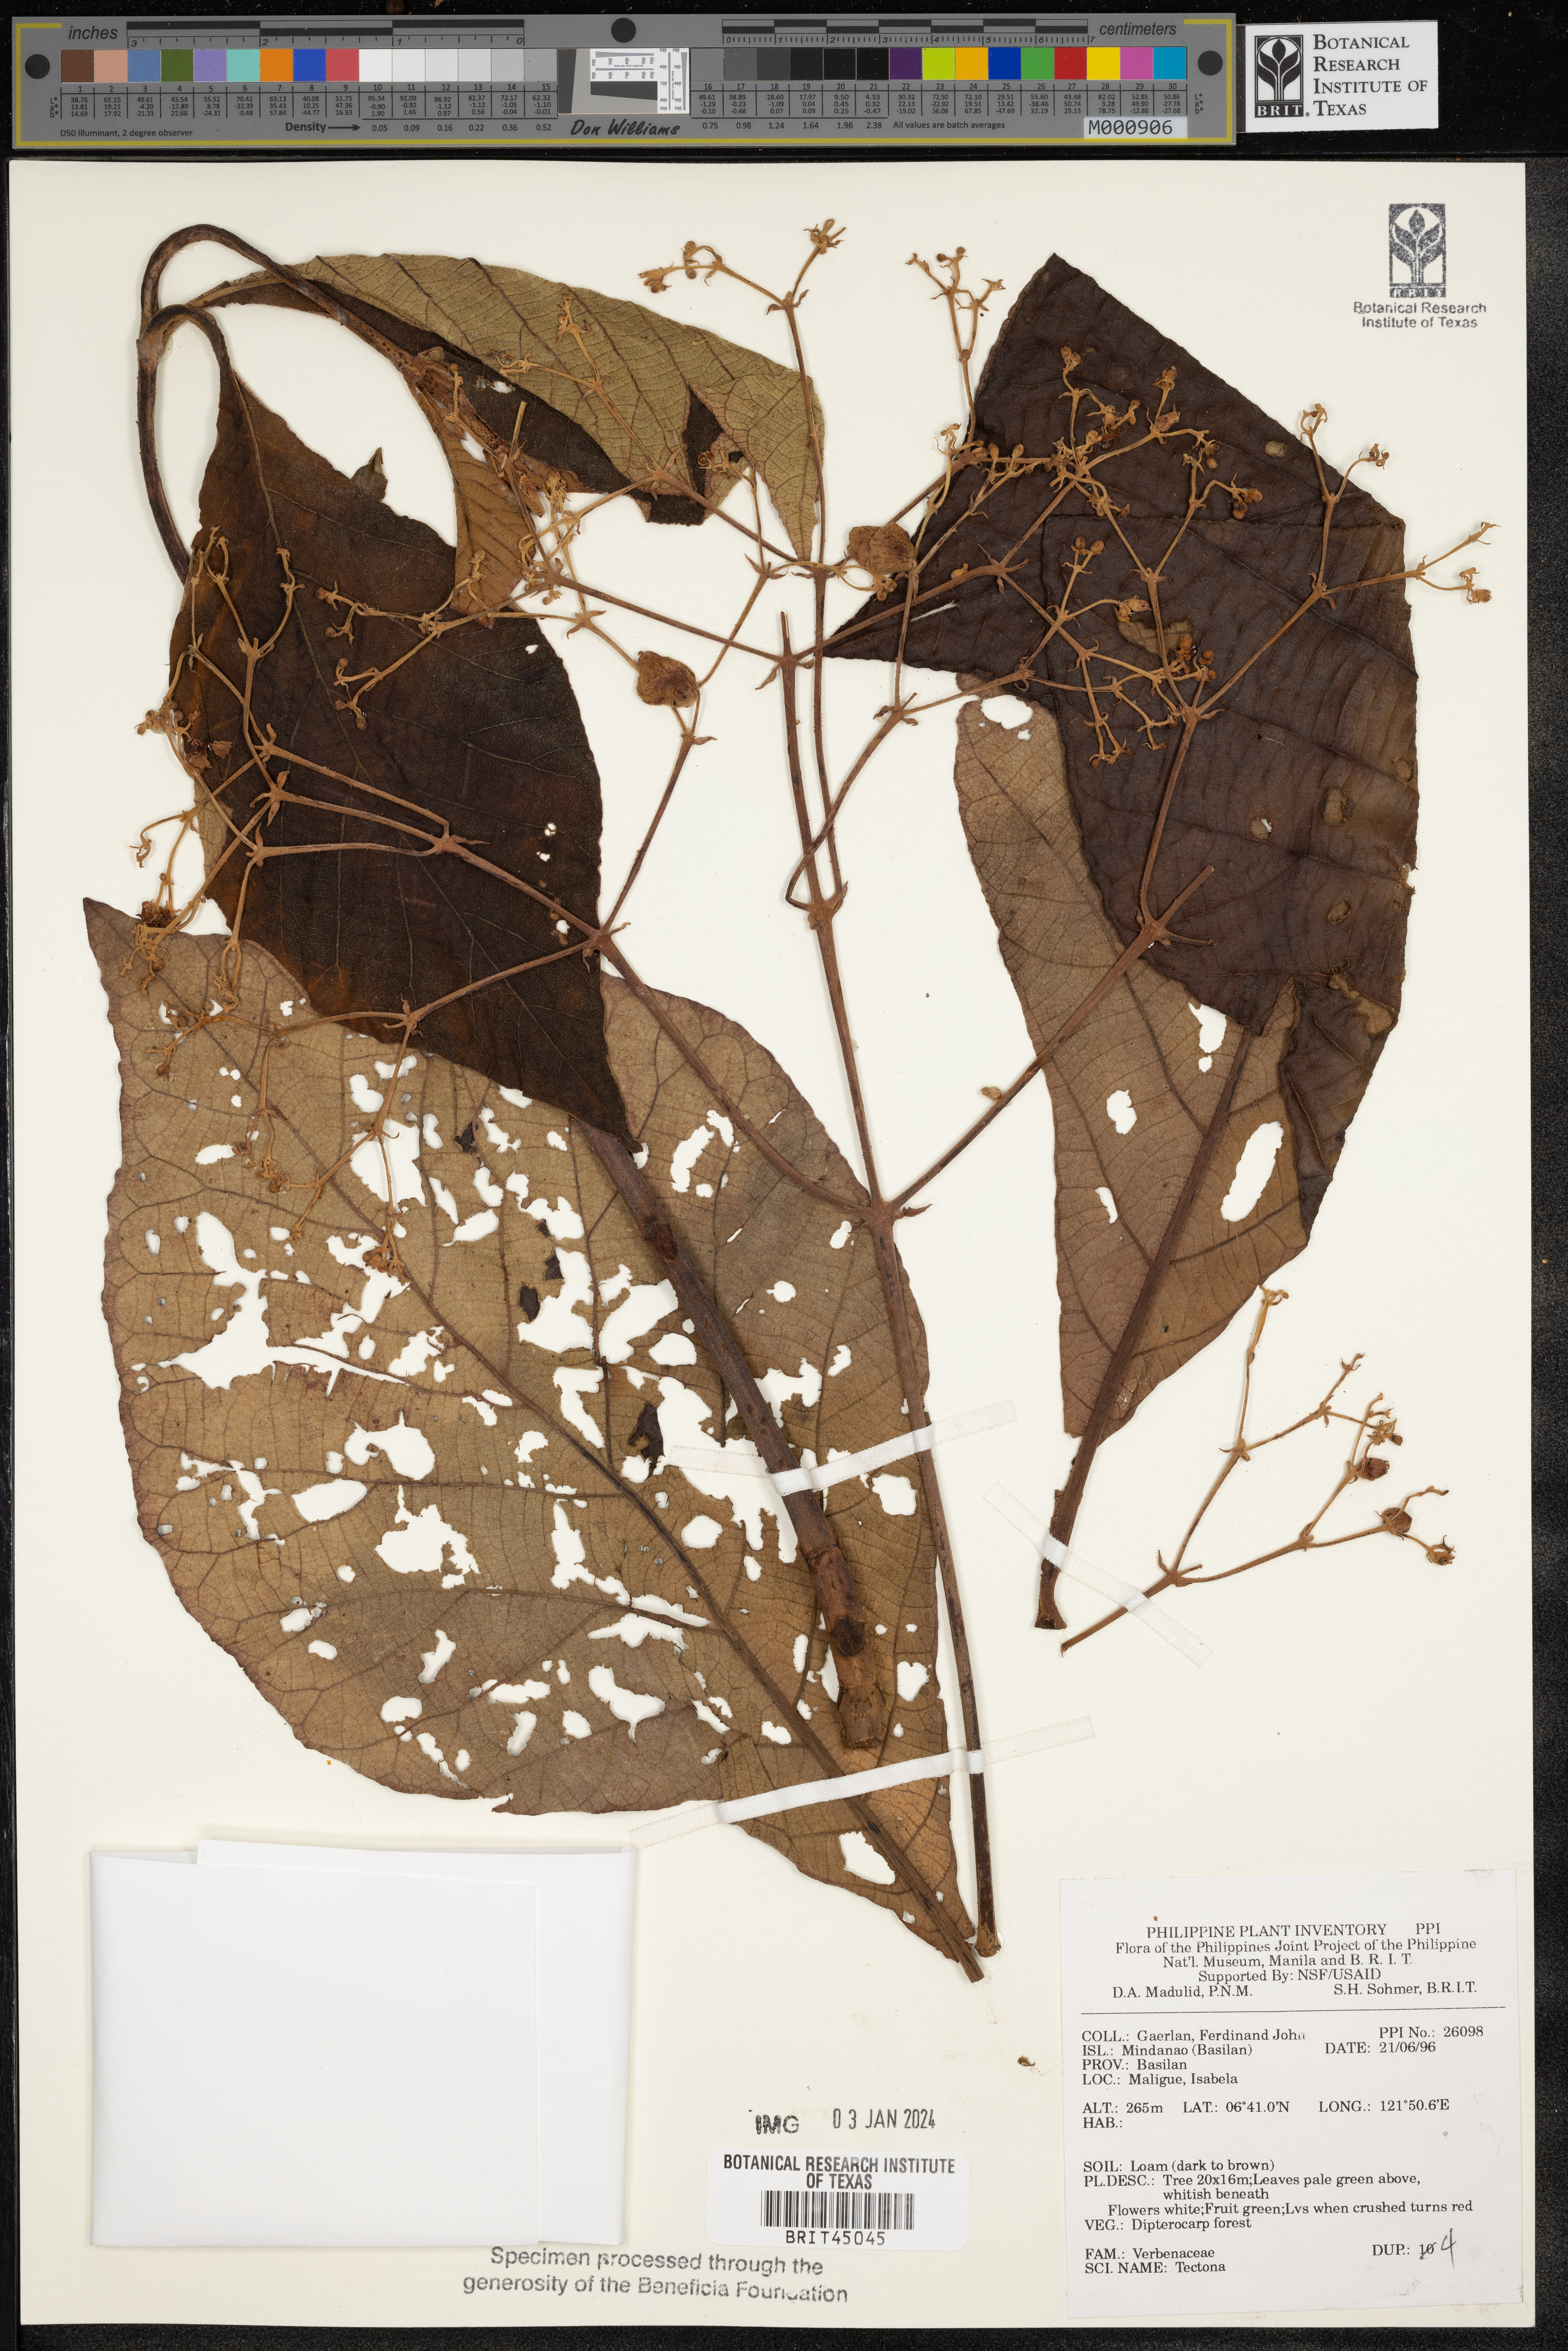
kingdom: Plantae
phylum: Tracheophyta
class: Magnoliopsida
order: Lamiales
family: Lamiaceae
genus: Tectona
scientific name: Tectona
